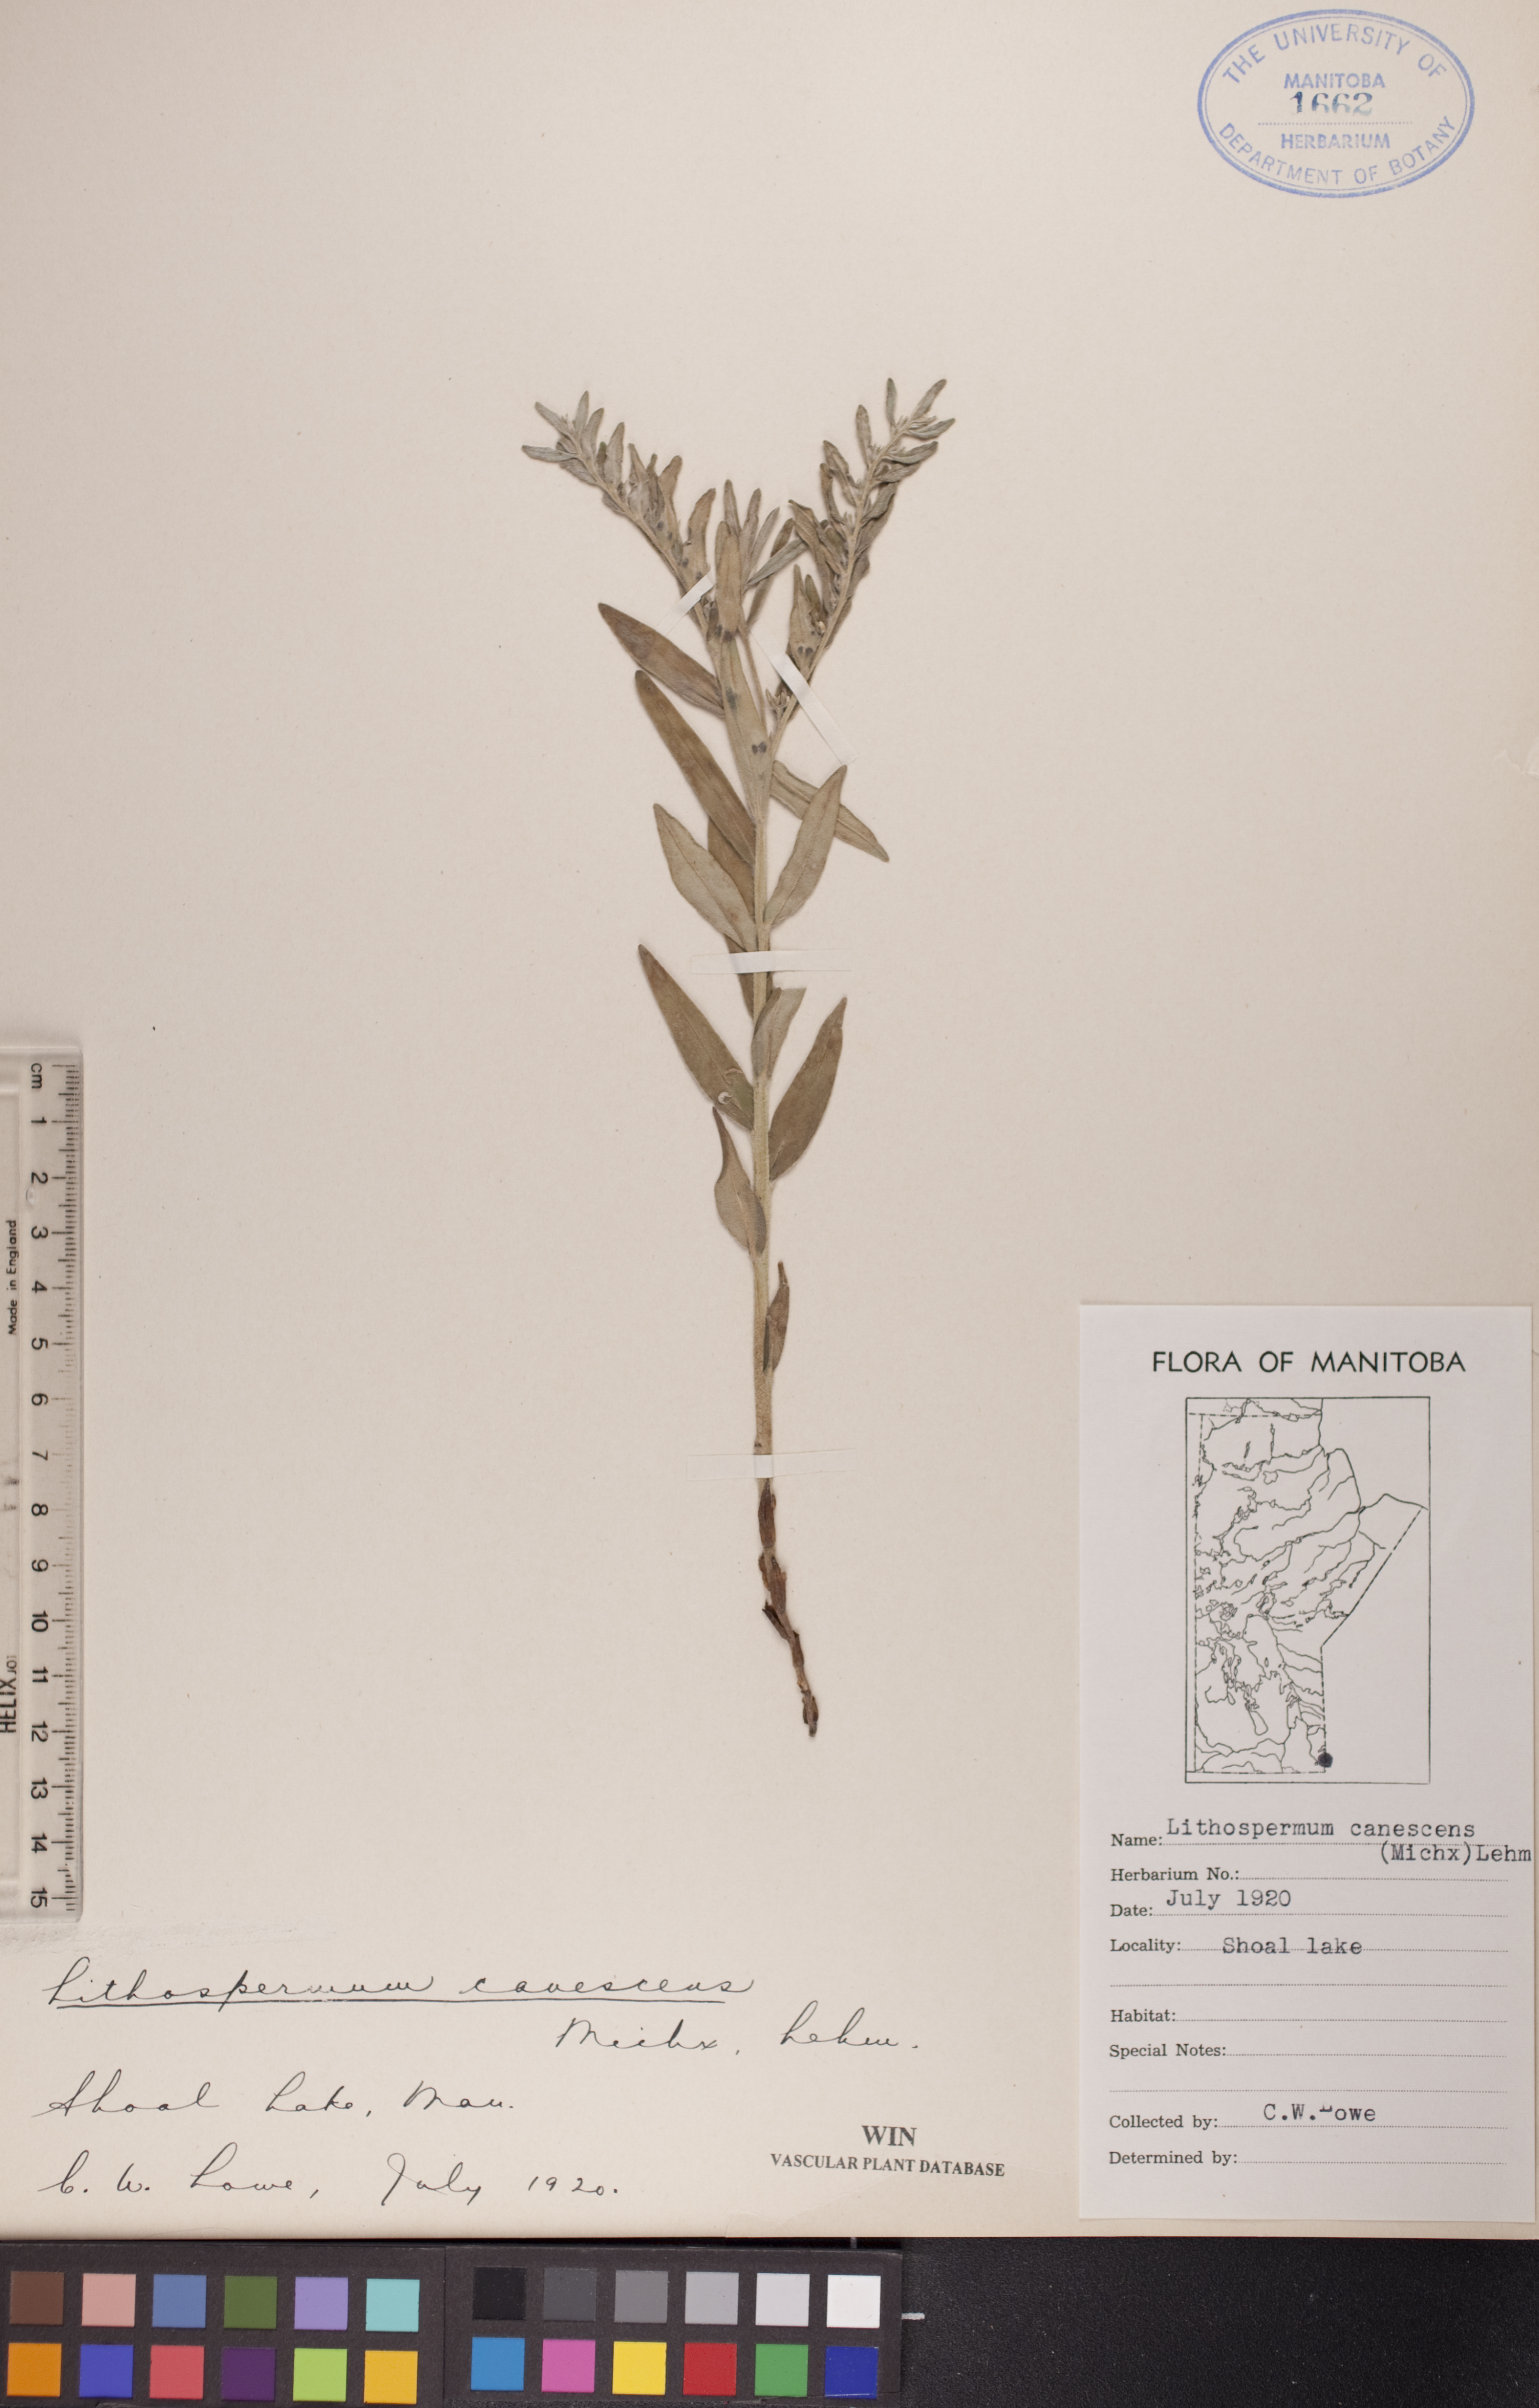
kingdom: Plantae
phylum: Tracheophyta
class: Magnoliopsida
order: Boraginales
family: Boraginaceae
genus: Lithospermum
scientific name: Lithospermum canescens
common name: Hoary puccoon
